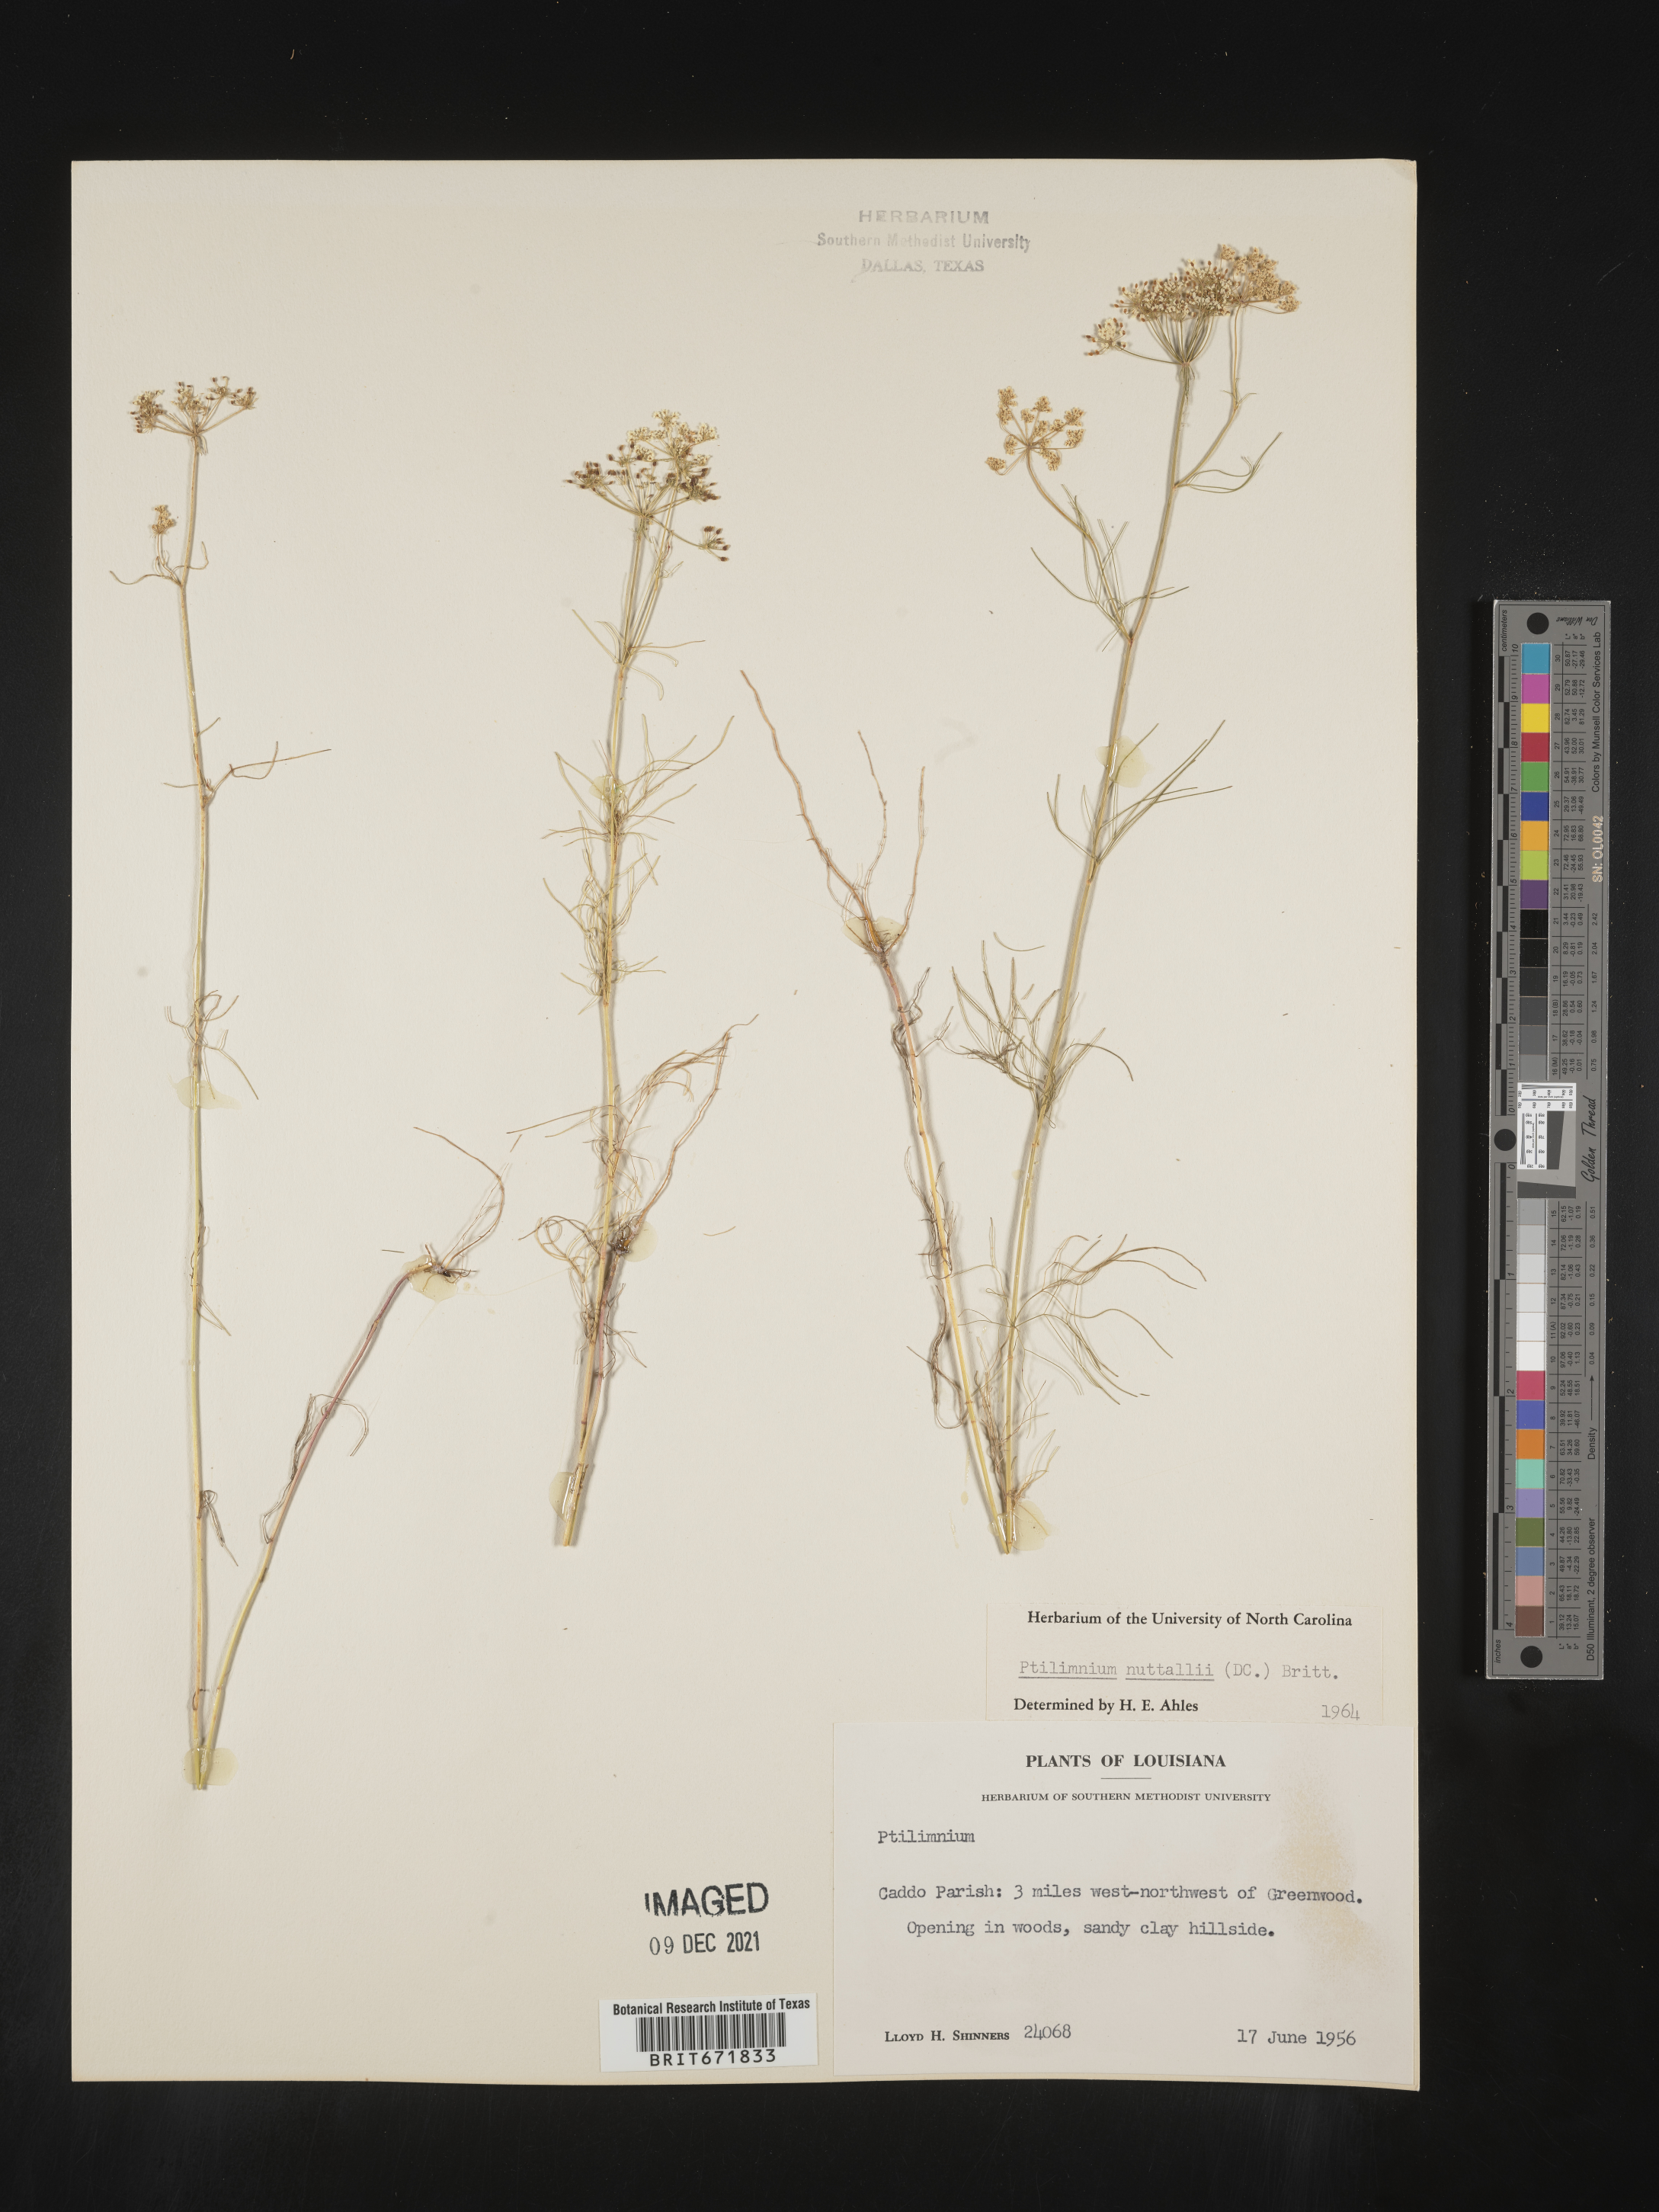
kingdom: Plantae
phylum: Tracheophyta
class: Magnoliopsida
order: Apiales
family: Apiaceae
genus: Ptilimnium
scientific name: Ptilimnium nuttallii
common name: Ozark bishop's-weed
